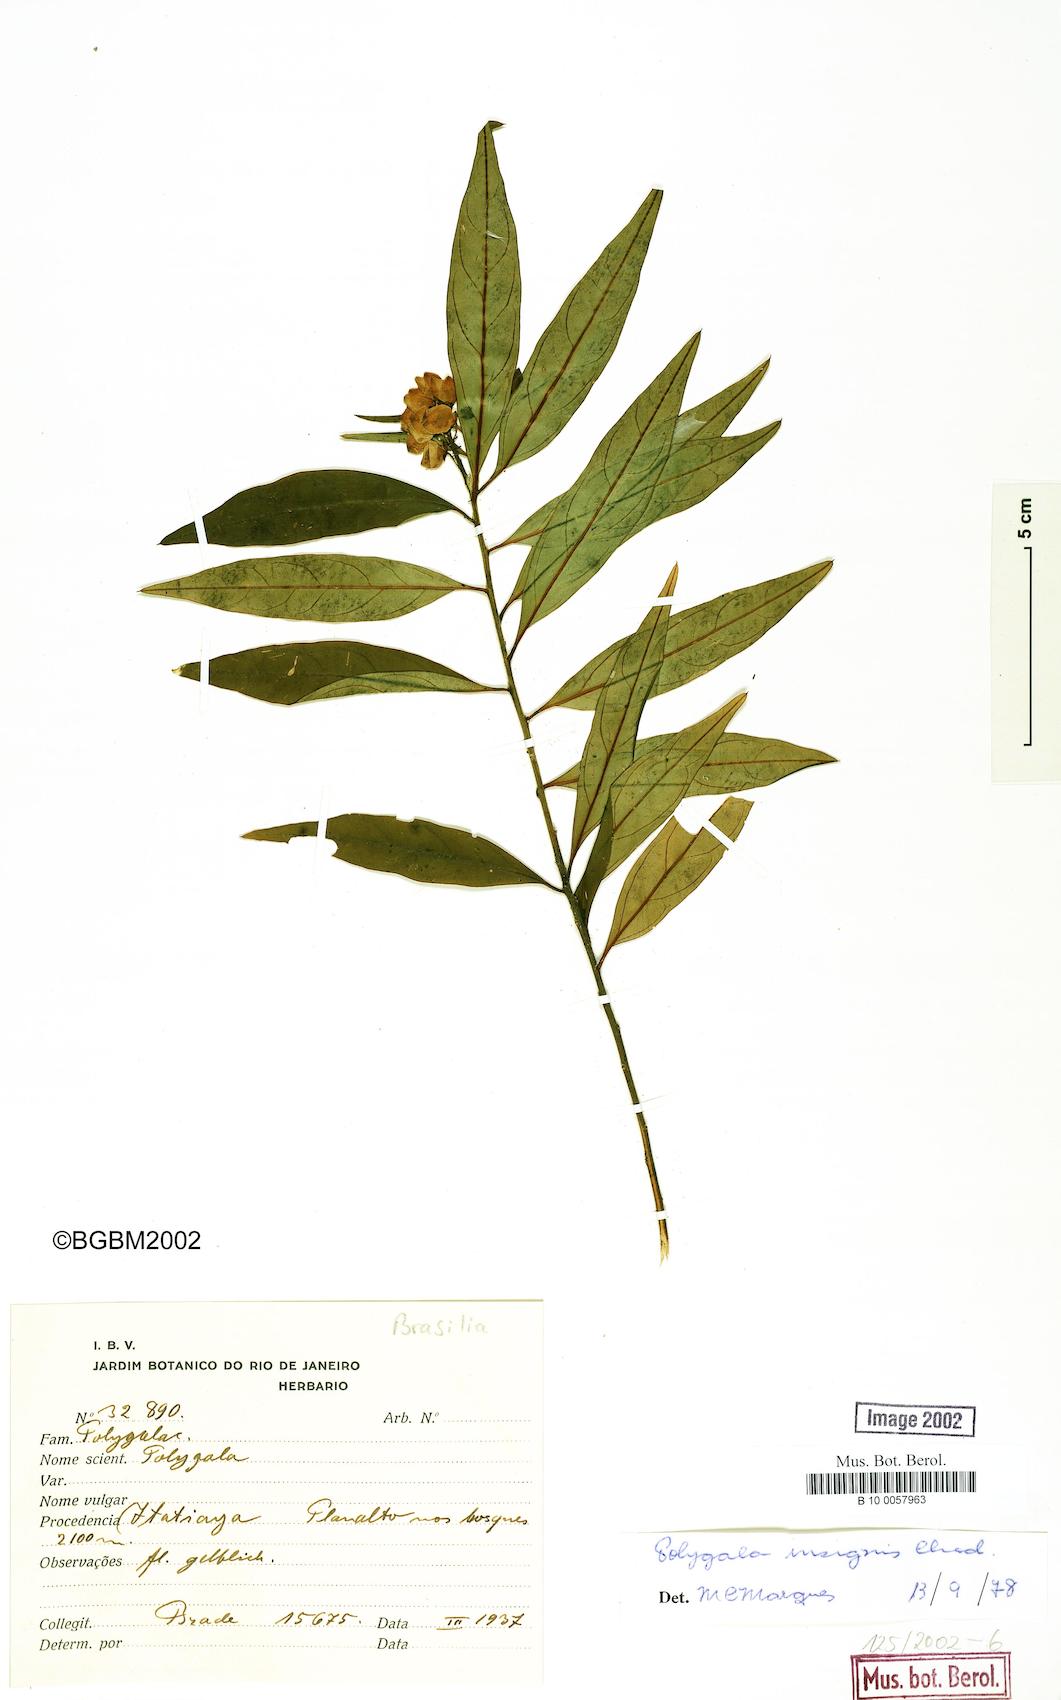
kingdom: Plantae
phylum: Tracheophyta
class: Magnoliopsida
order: Fabales
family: Polygalaceae
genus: Caamembeca
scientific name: Caamembeca insignis
